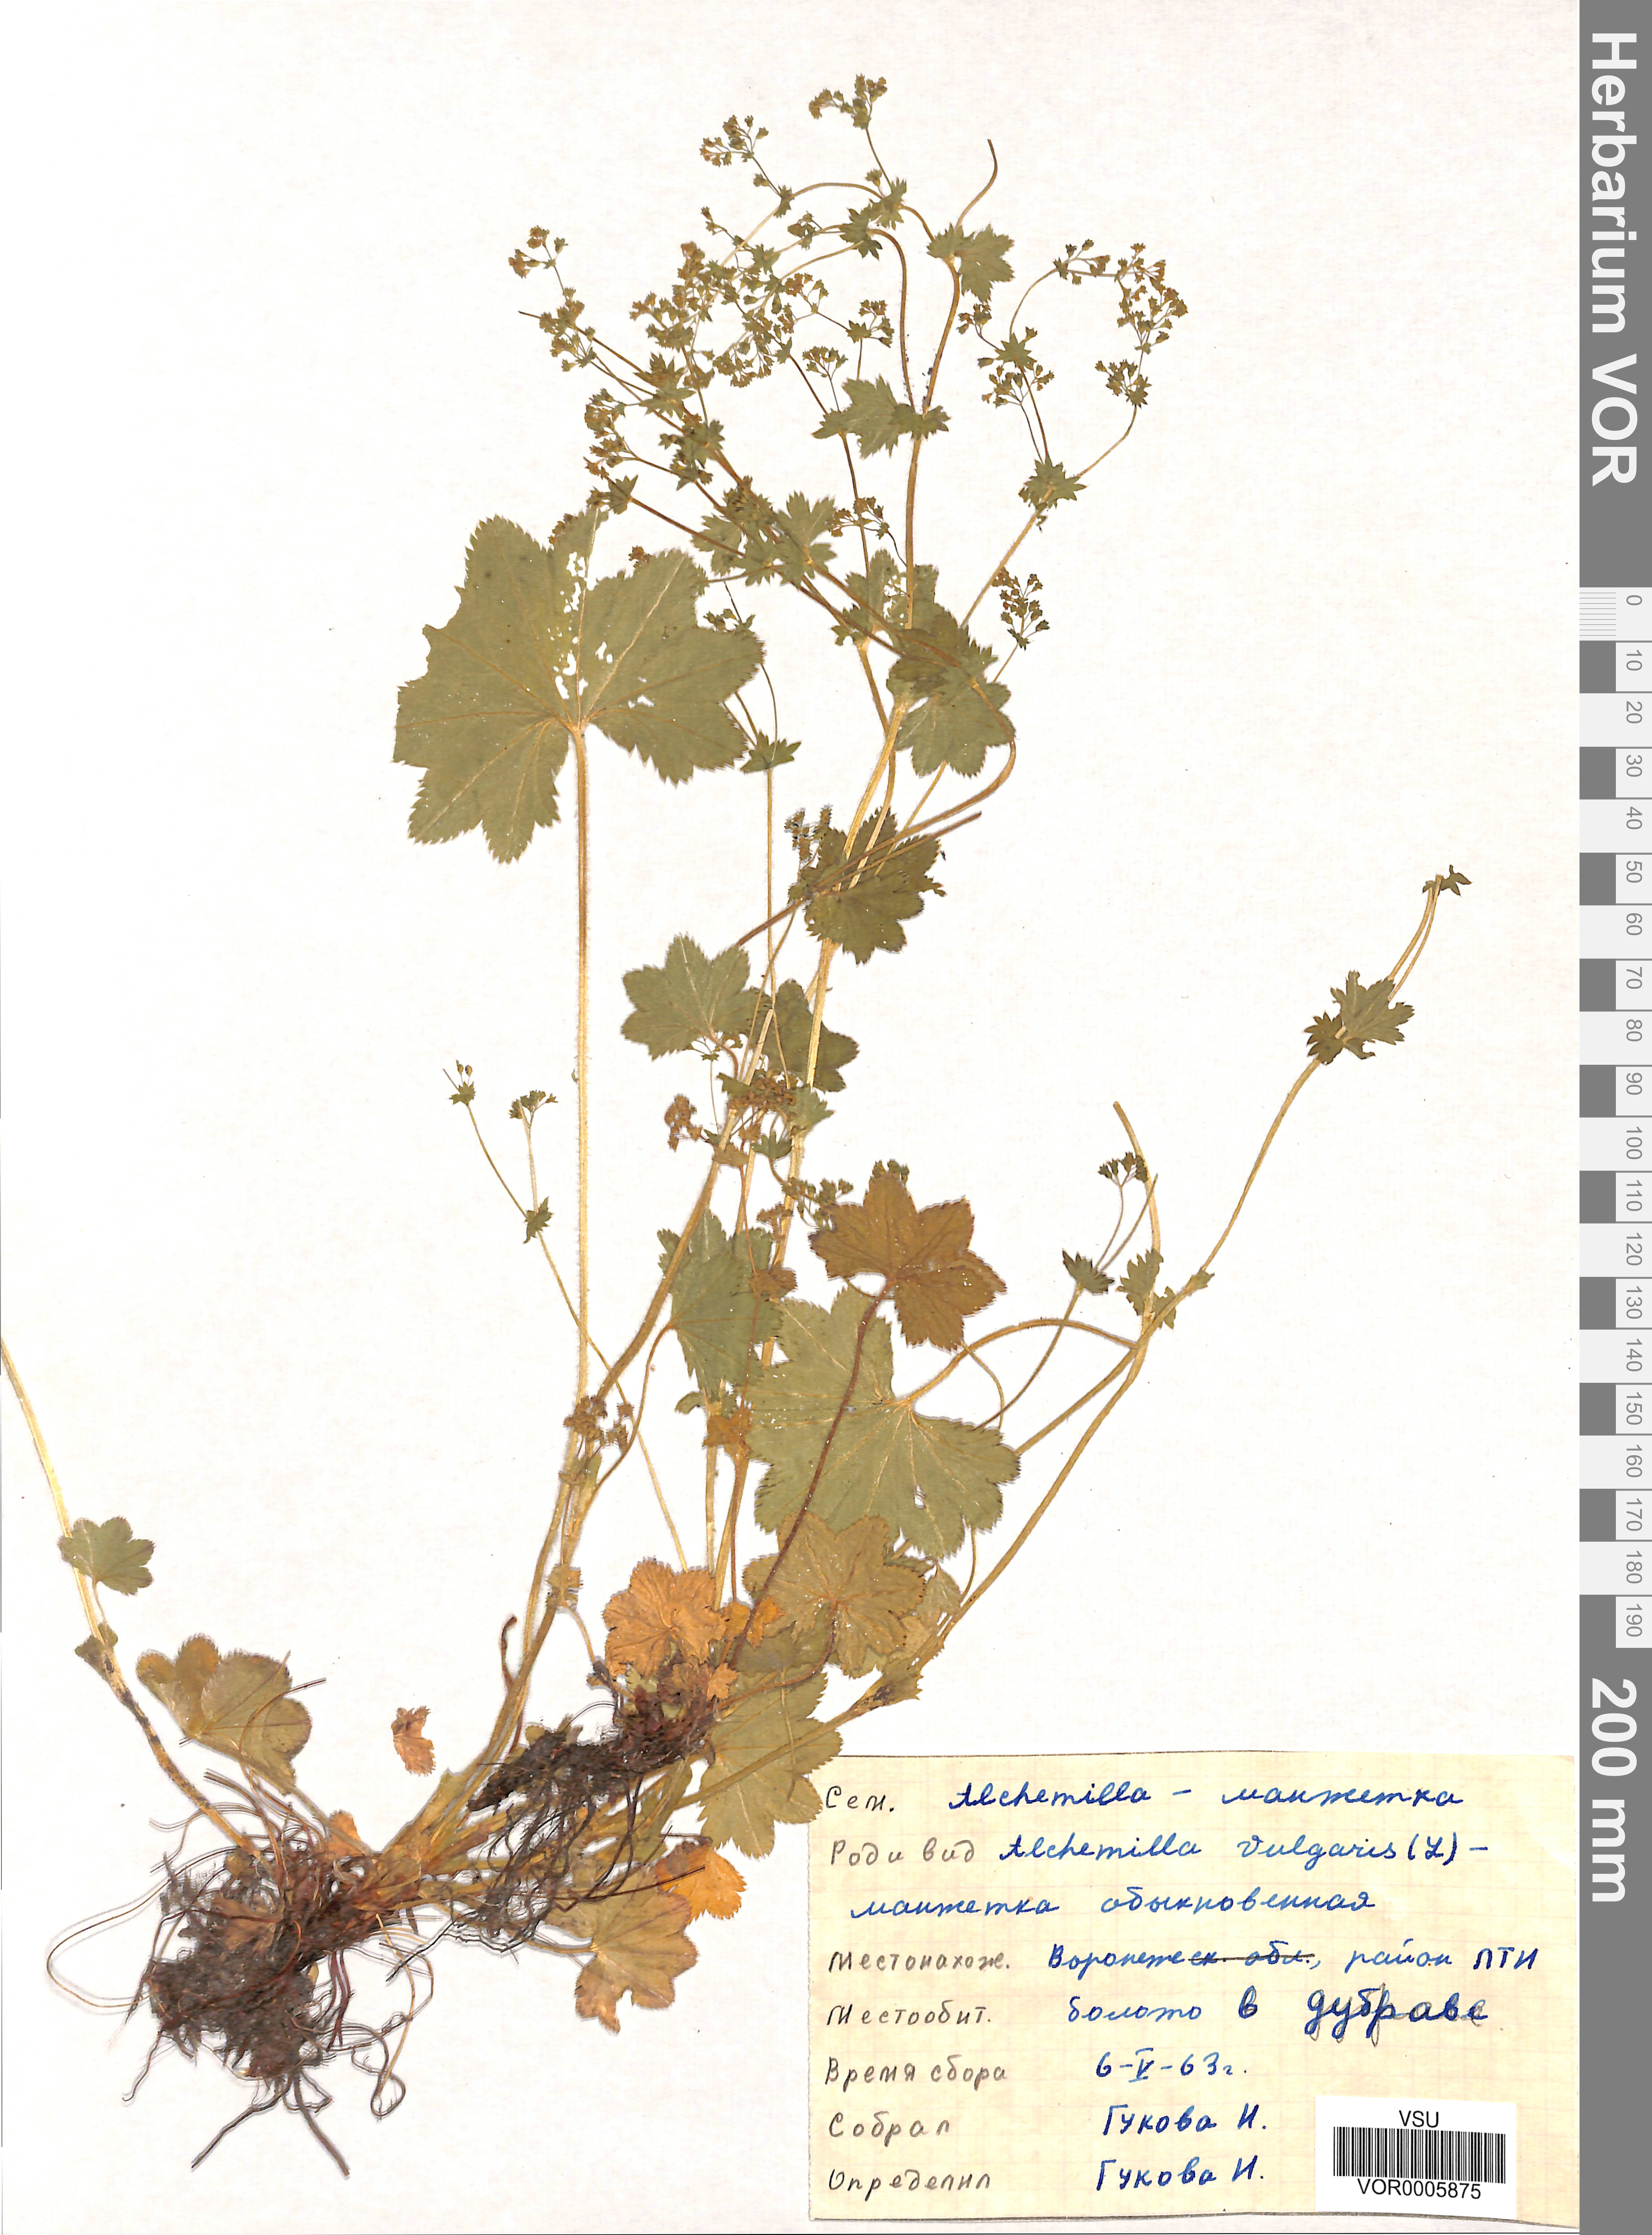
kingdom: Plantae
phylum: Tracheophyta
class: Magnoliopsida
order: Rosales
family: Rosaceae
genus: Alchemilla
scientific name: Alchemilla vulgaris
